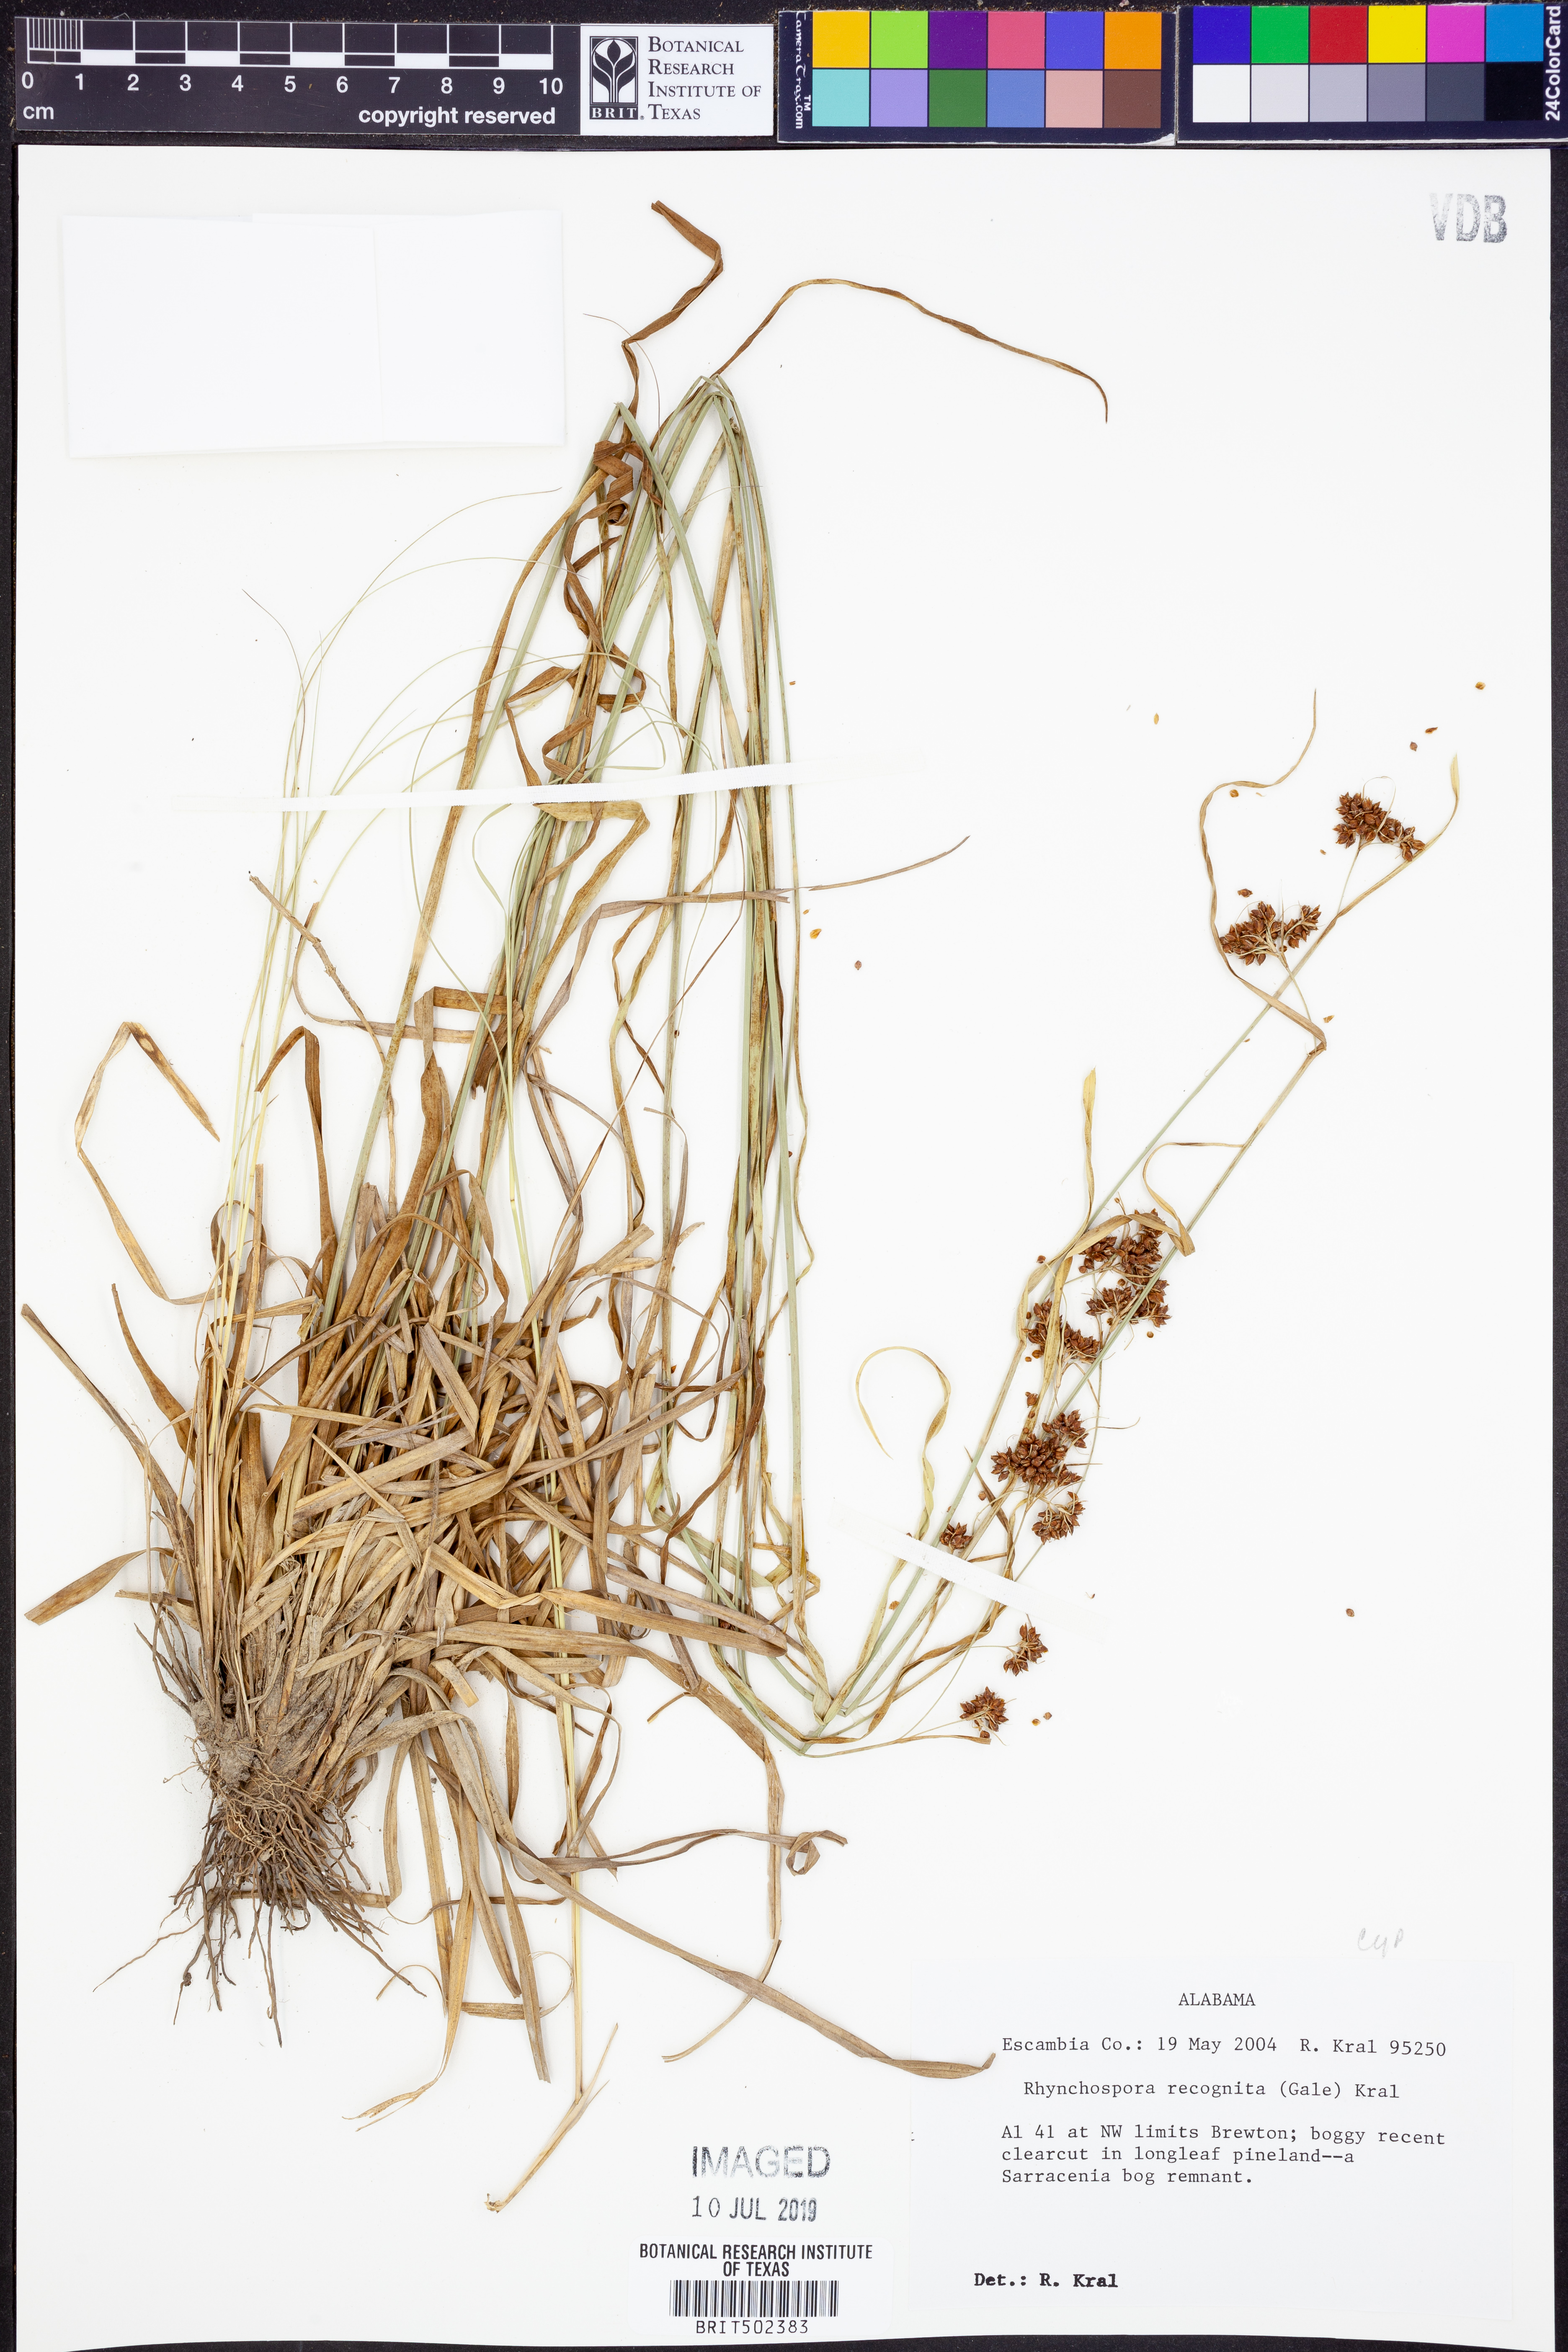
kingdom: Plantae
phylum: Tracheophyta
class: Liliopsida
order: Poales
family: Cyperaceae
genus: Rhynchospora
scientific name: Rhynchospora recognita
